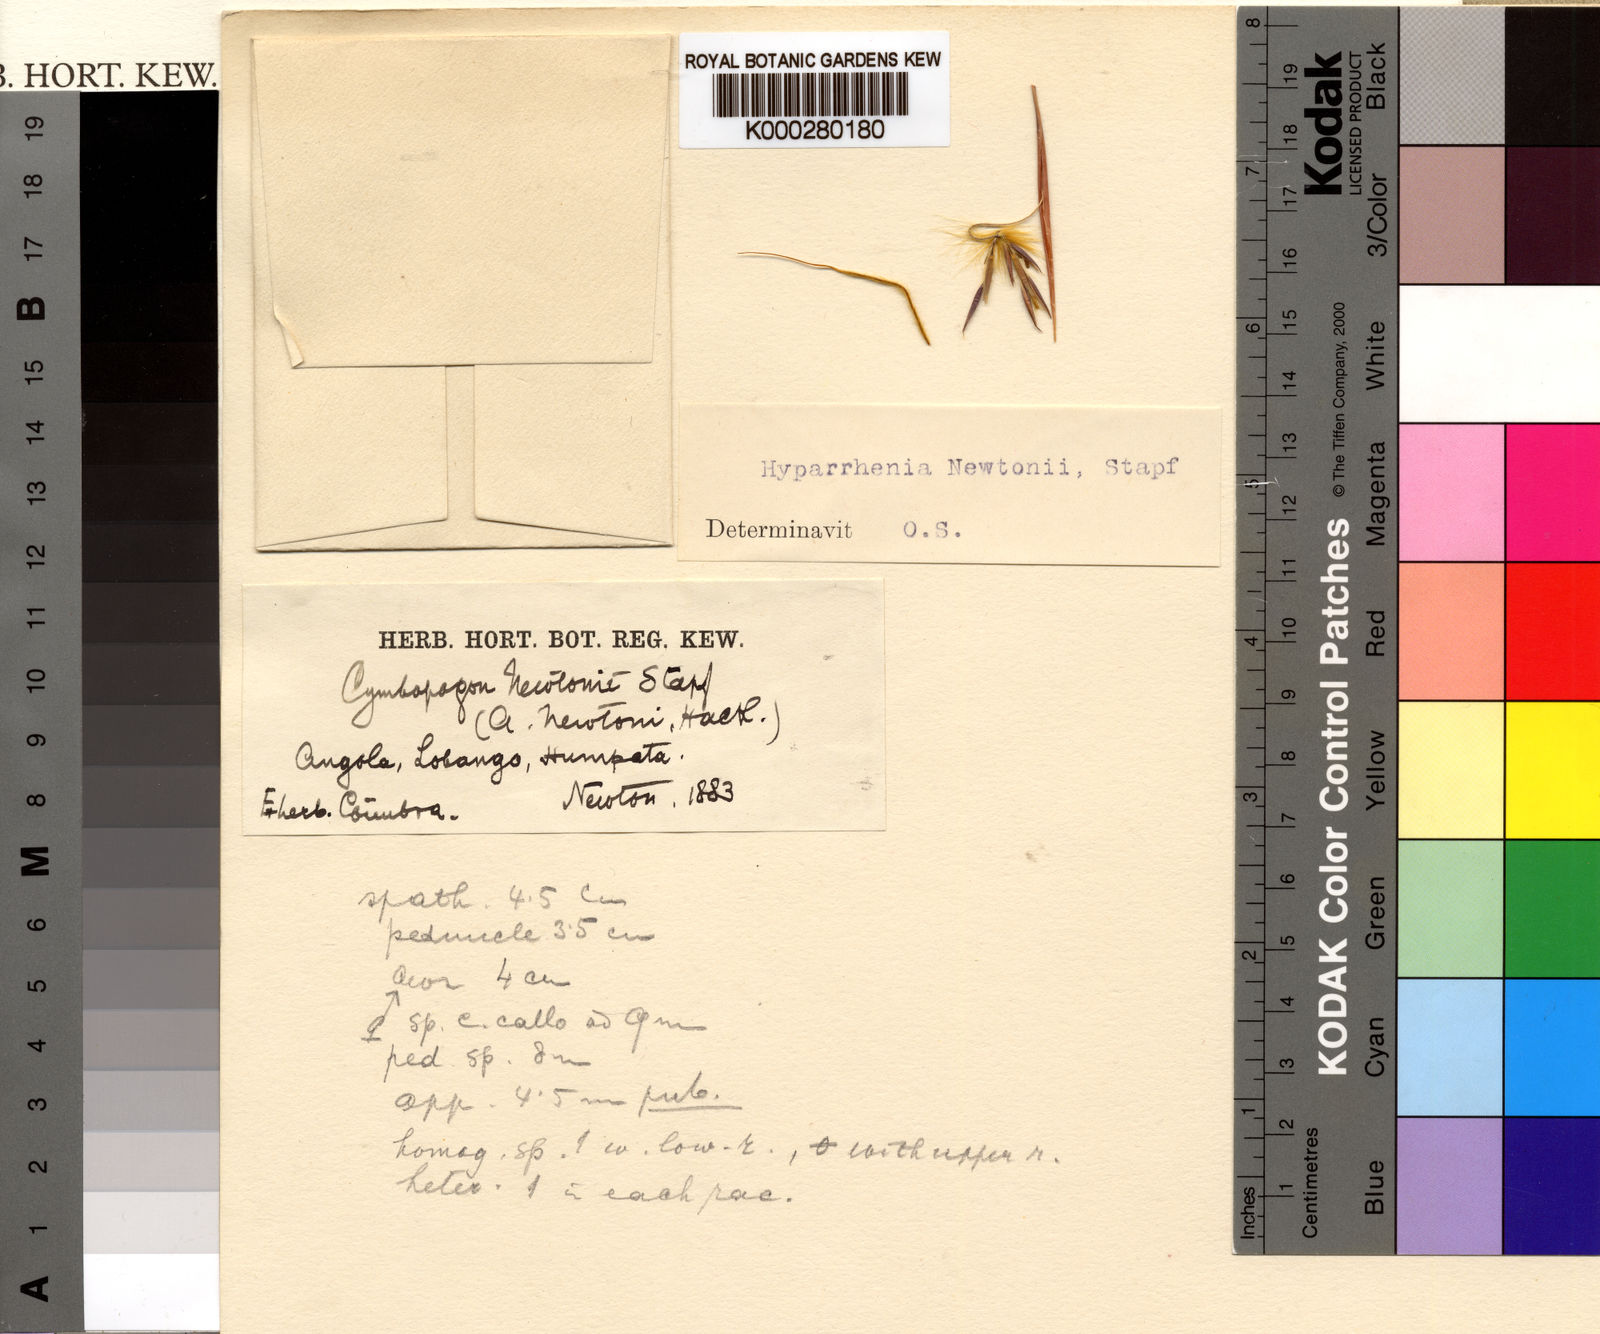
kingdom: Plantae
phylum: Tracheophyta
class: Liliopsida
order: Poales
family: Poaceae
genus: Hyparrhenia
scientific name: Hyparrhenia newtonii
